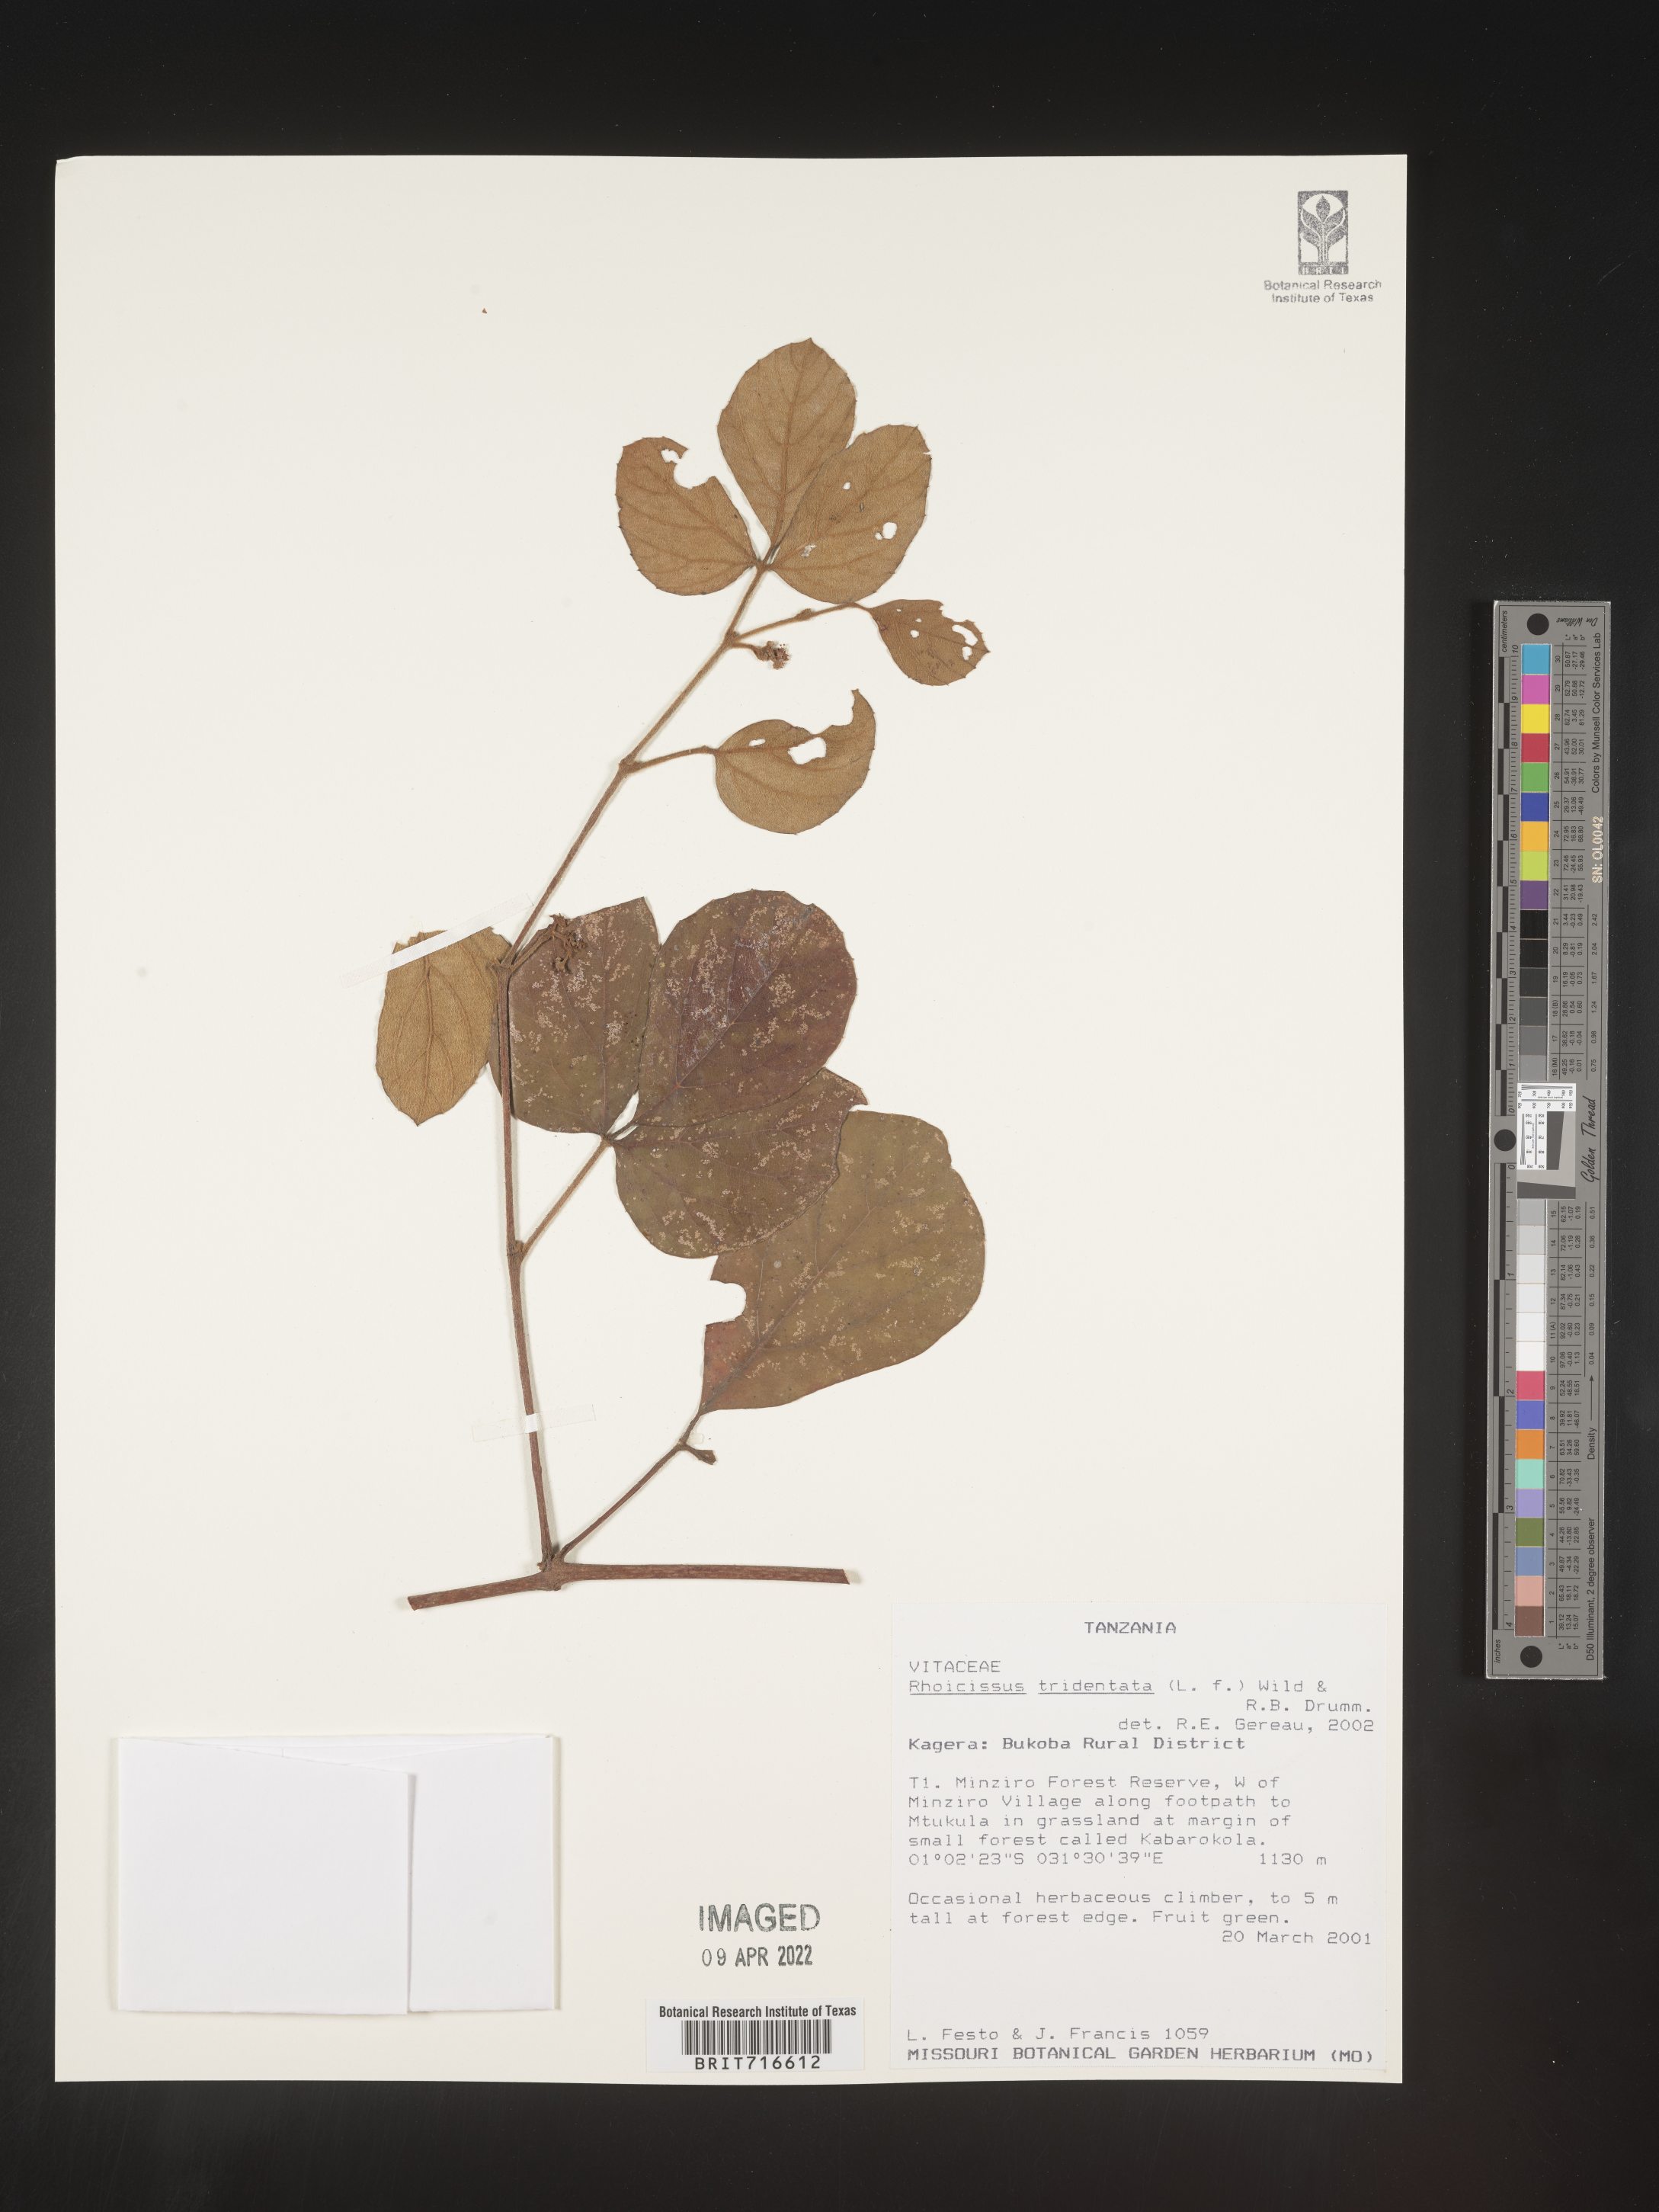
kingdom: Plantae
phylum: Tracheophyta
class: Magnoliopsida
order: Vitales
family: Vitaceae
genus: Rhoicissus
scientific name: Rhoicissus tridentata
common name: Common forest grape
